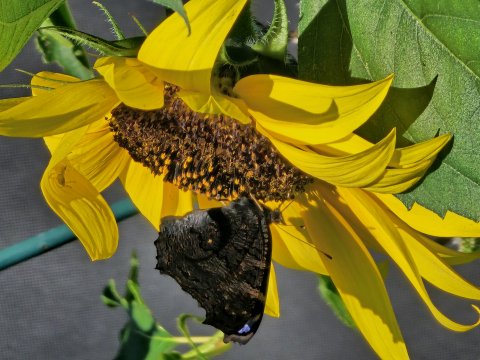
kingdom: Animalia
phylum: Arthropoda
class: Insecta
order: Lepidoptera
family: Nymphalidae
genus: Aglais
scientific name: Aglais io
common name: European Peacock
